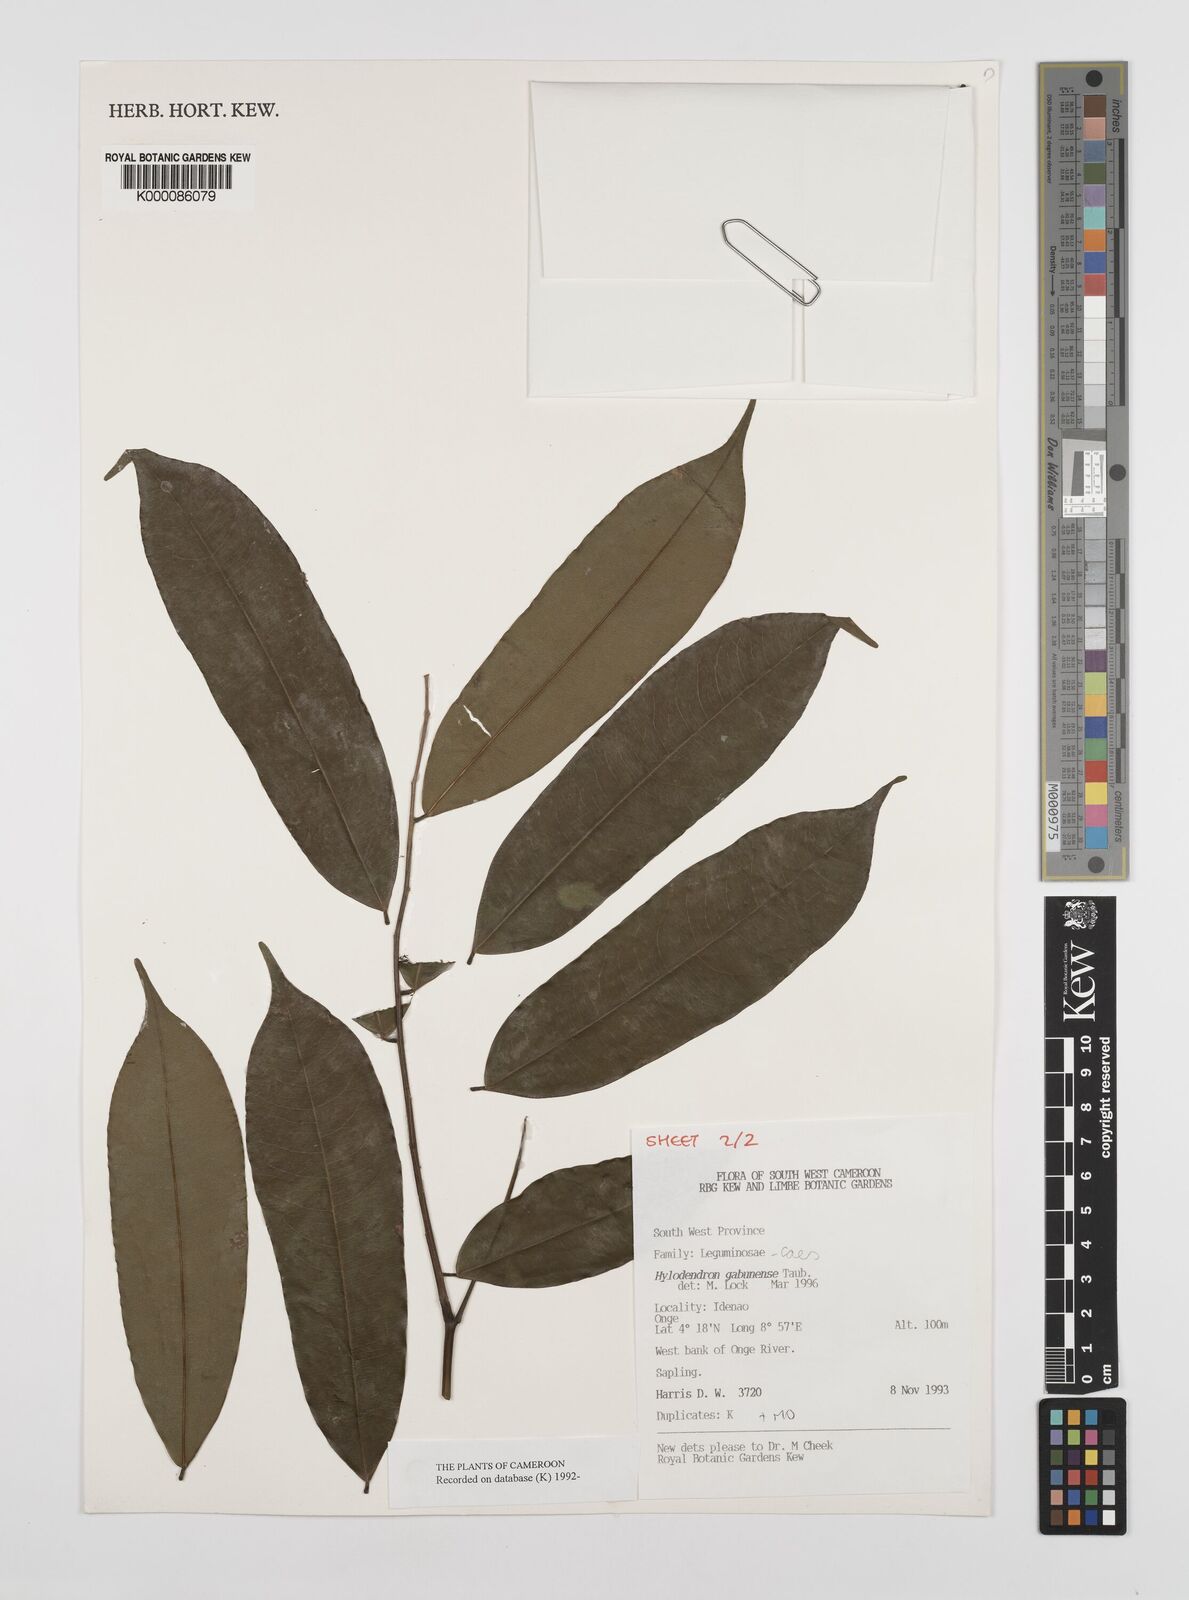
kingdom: Plantae
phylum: Tracheophyta
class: Magnoliopsida
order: Fabales
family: Fabaceae
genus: Hylodendron
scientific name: Hylodendron gabunense
